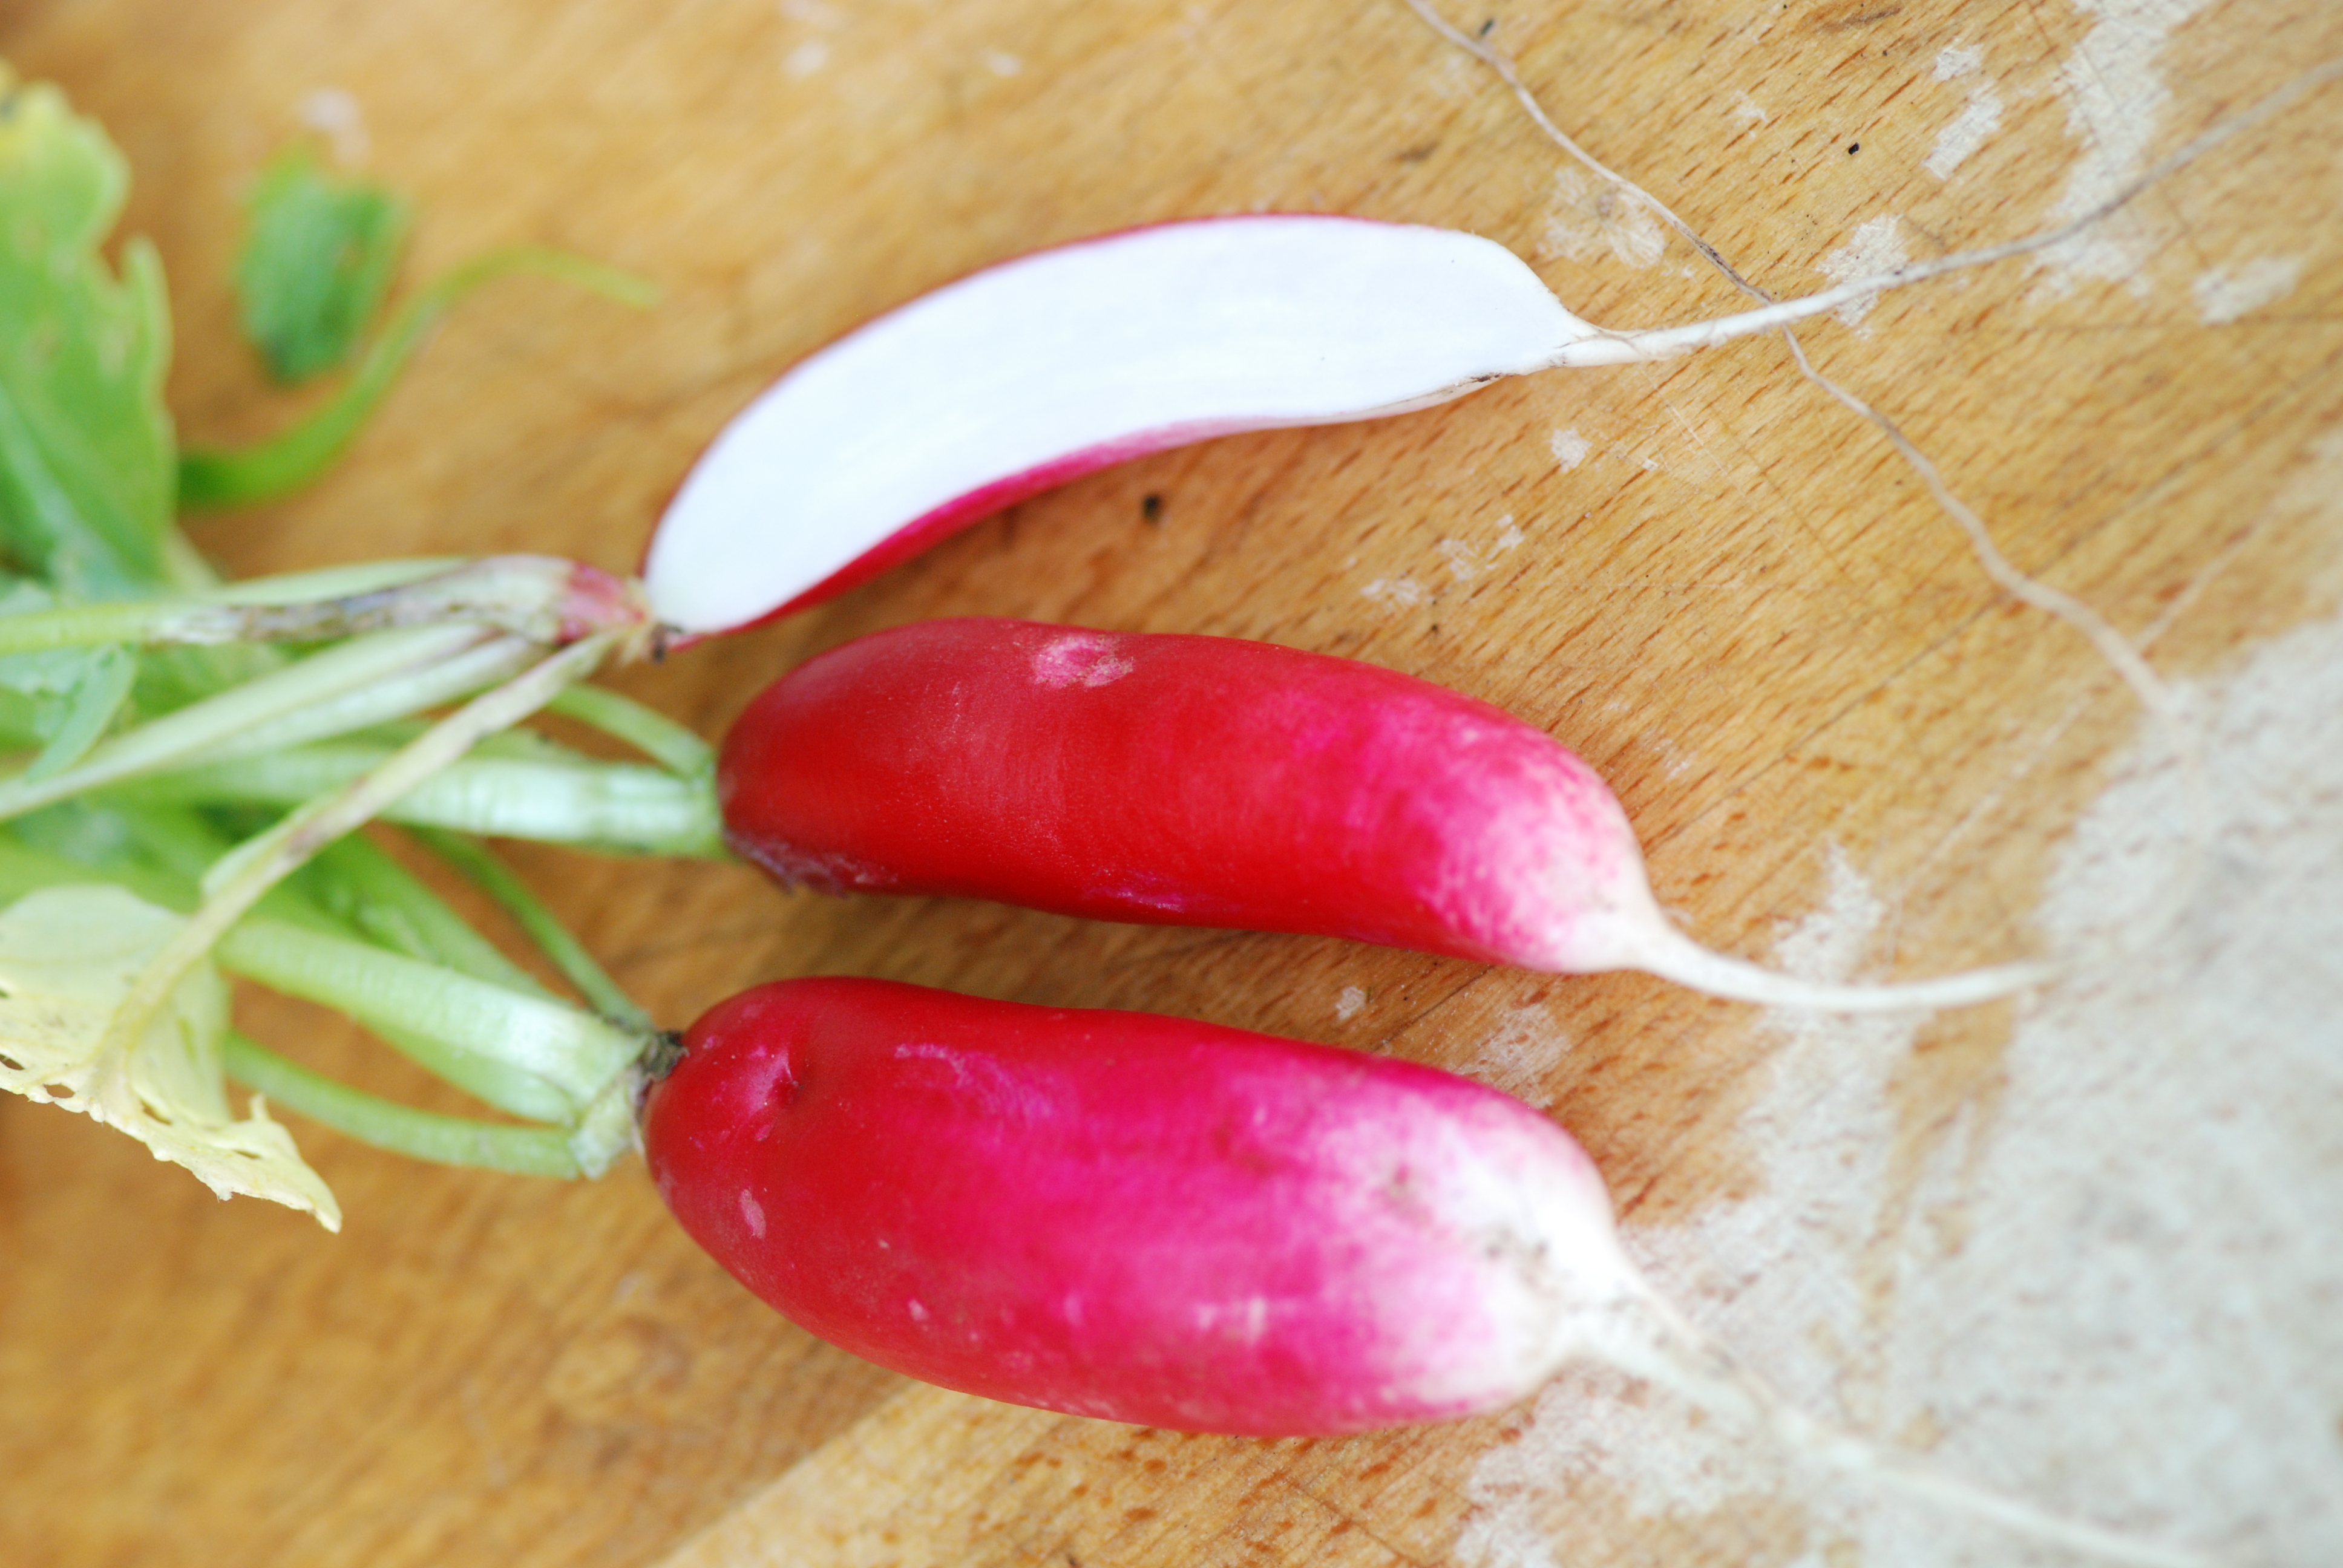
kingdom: Plantae
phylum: Tracheophyta
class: Magnoliopsida
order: Brassicales
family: Brassicaceae
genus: Raphanus
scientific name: Raphanus sativus
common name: Cultivated radish
